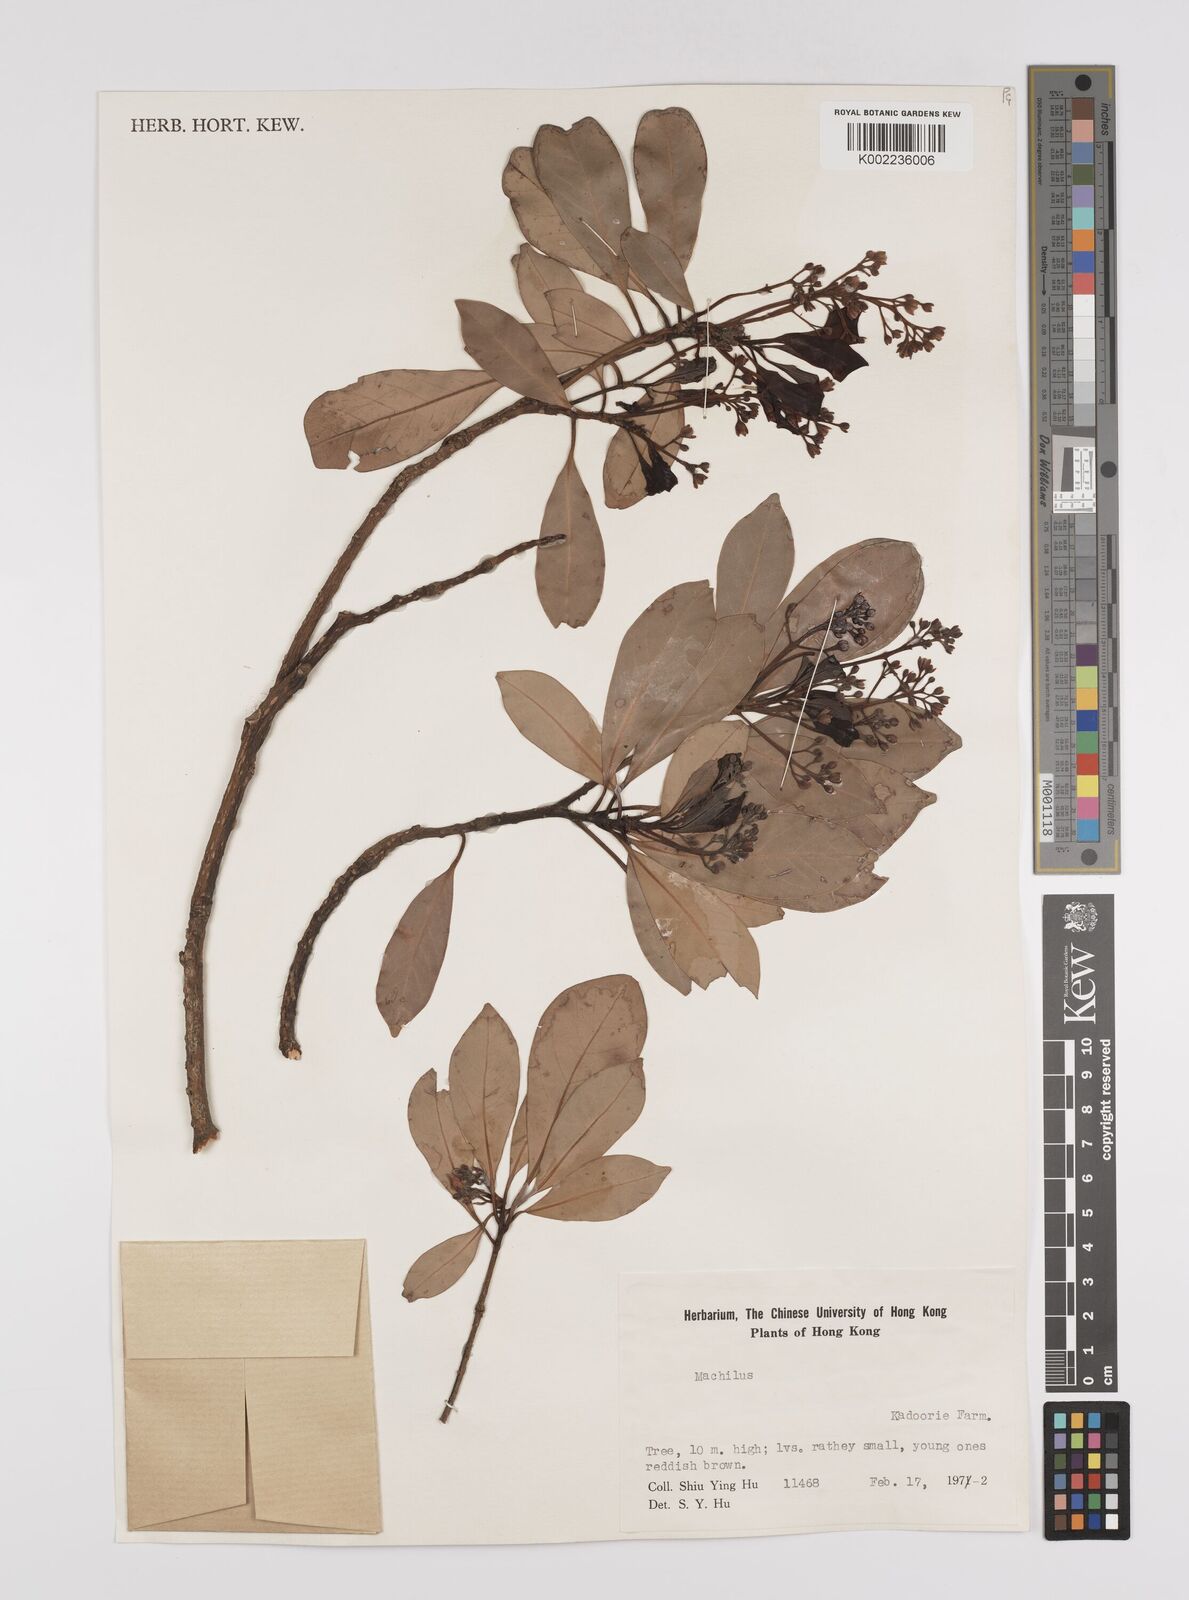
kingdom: Plantae
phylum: Tracheophyta
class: Magnoliopsida
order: Laurales
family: Lauraceae
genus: Persea
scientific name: Persea
